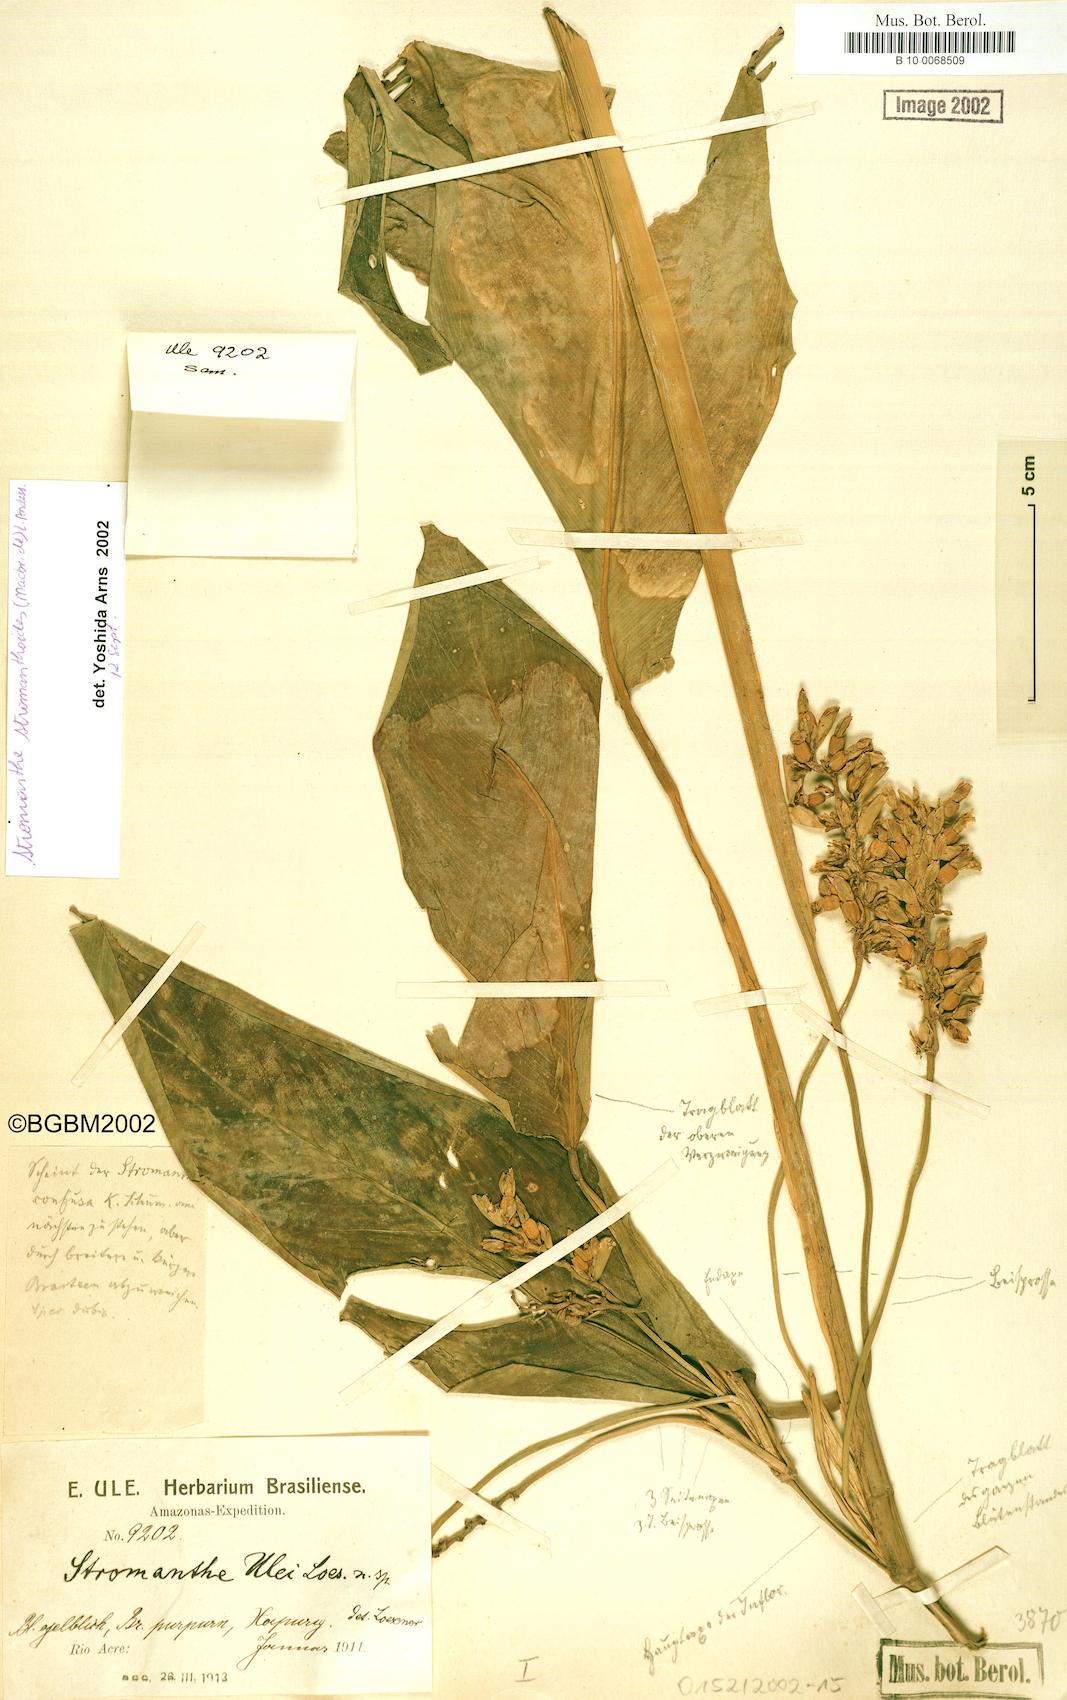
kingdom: Plantae
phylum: Tracheophyta
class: Liliopsida
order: Zingiberales
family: Marantaceae
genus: Stromanthe
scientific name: Stromanthe stromanthoides
